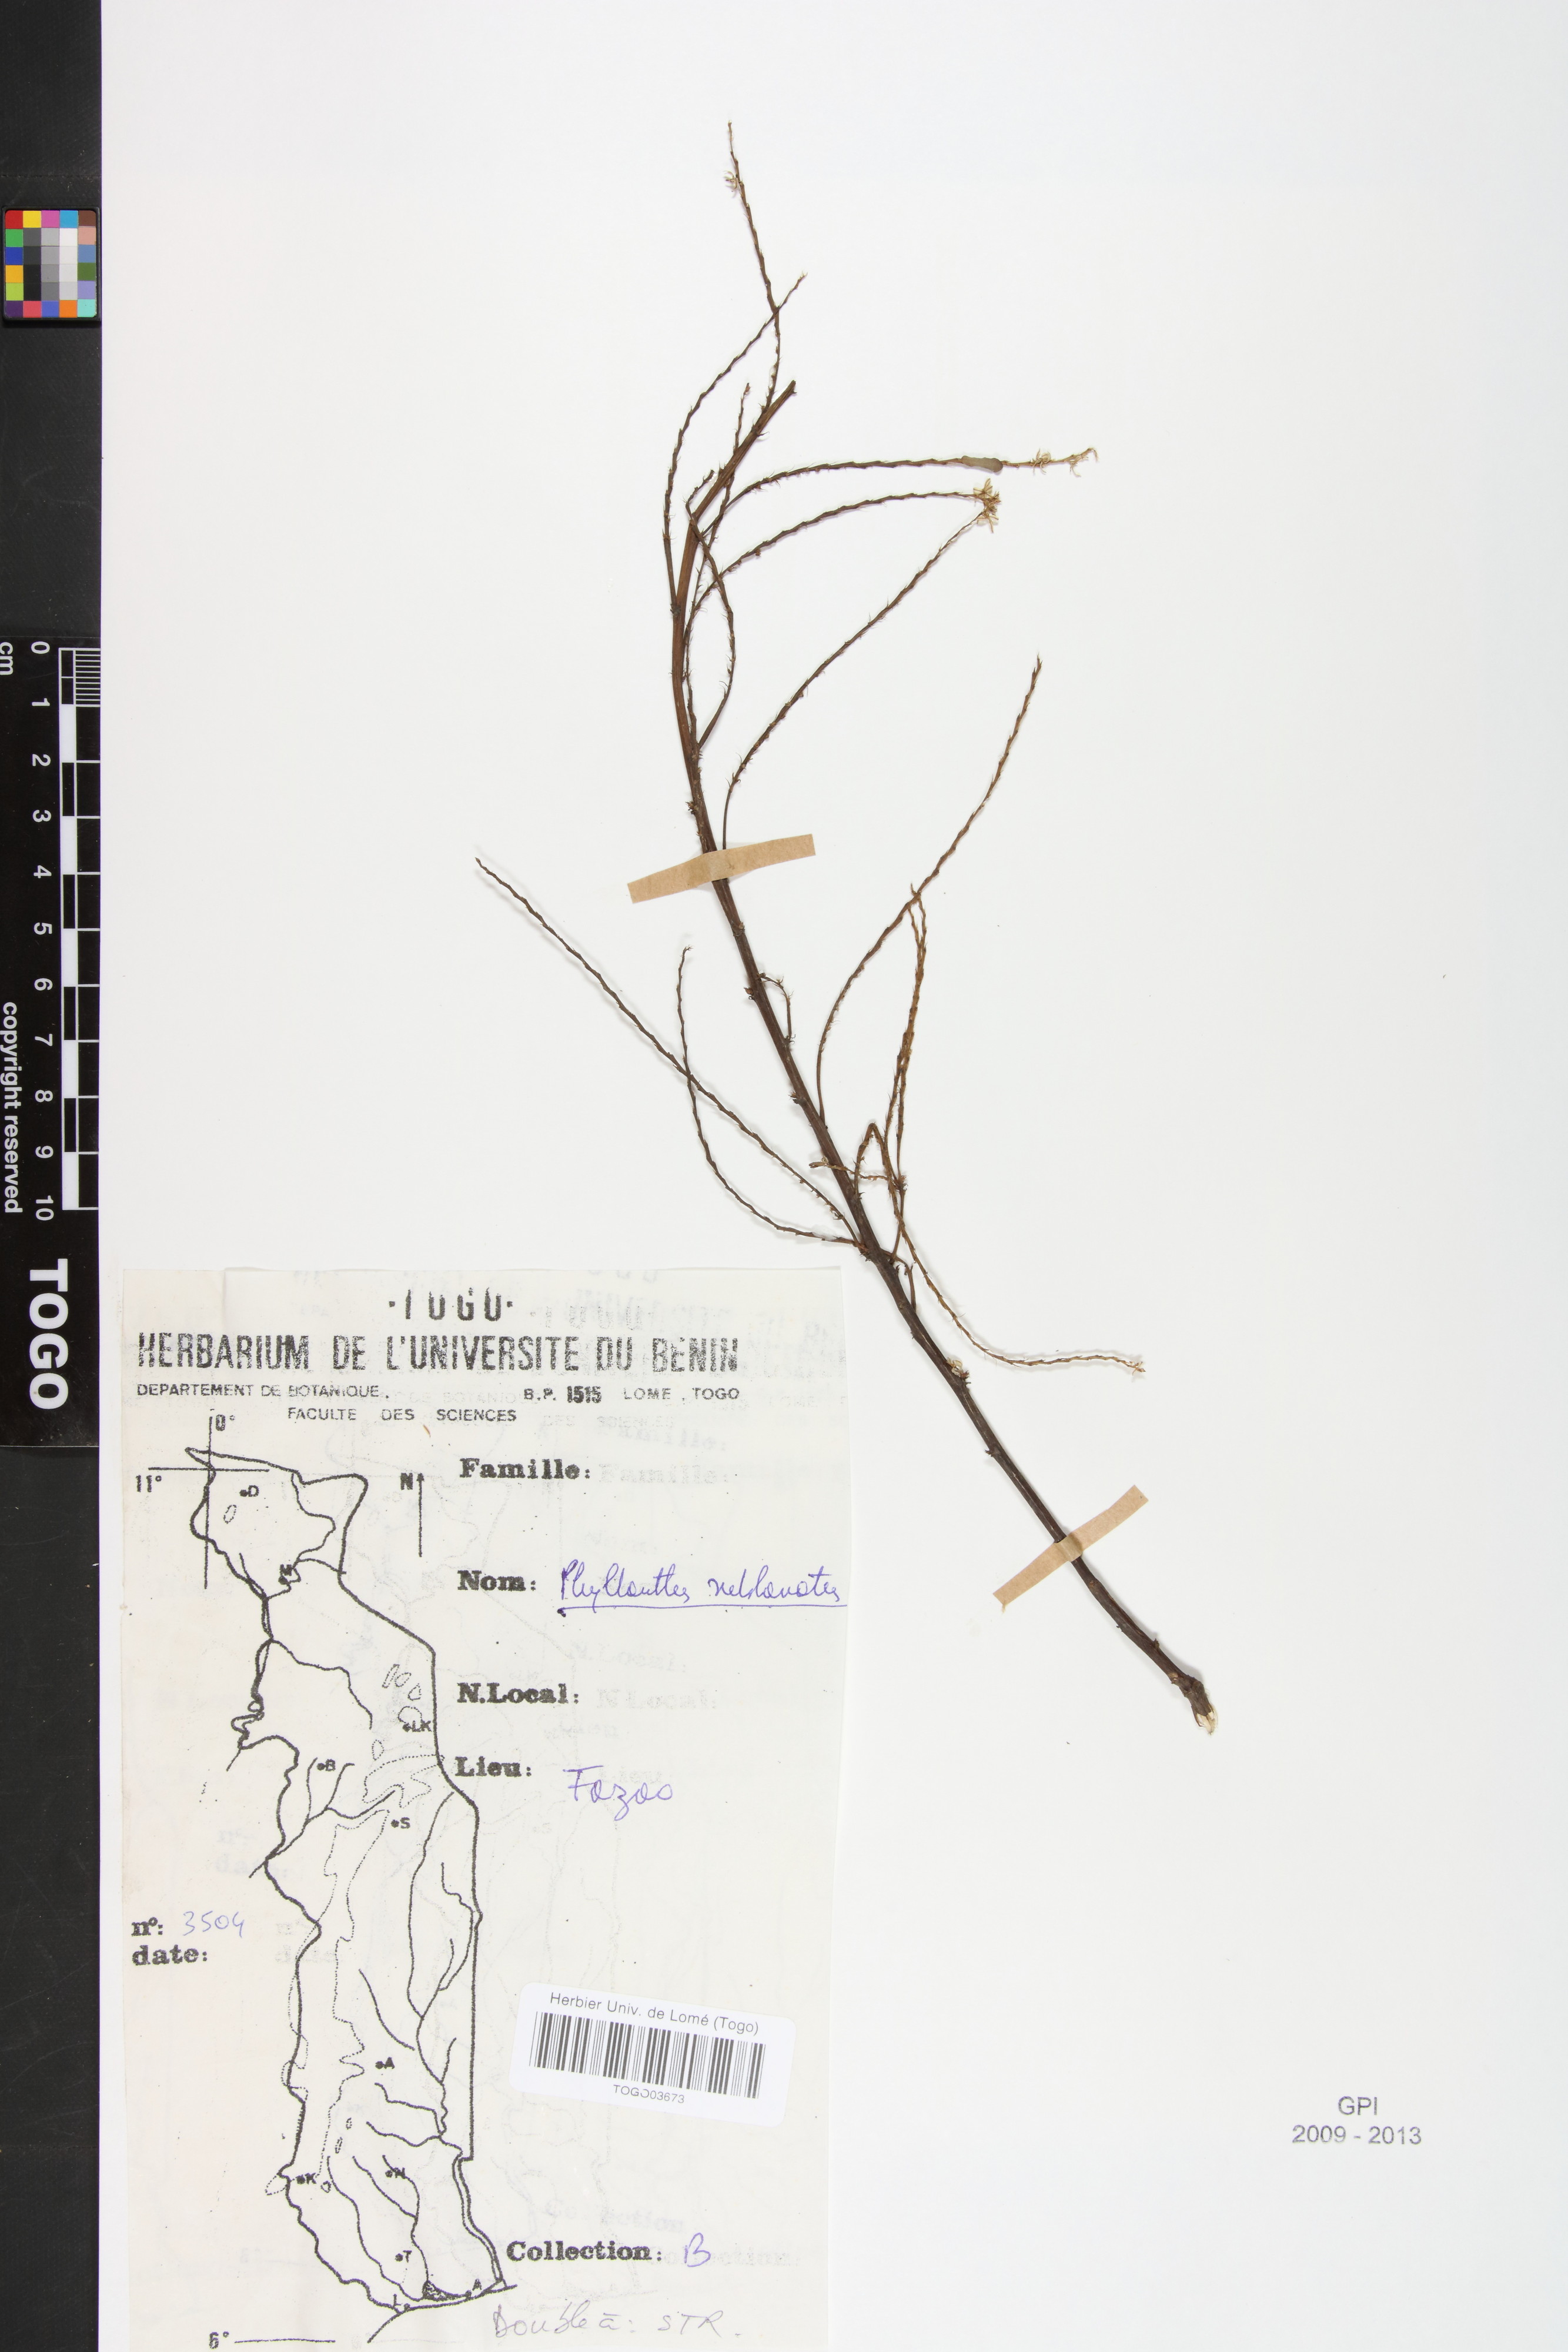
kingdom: Plantae
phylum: Tracheophyta
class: Magnoliopsida
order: Malpighiales
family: Phyllanthaceae
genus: Phyllanthus
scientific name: Phyllanthus sublanatus
